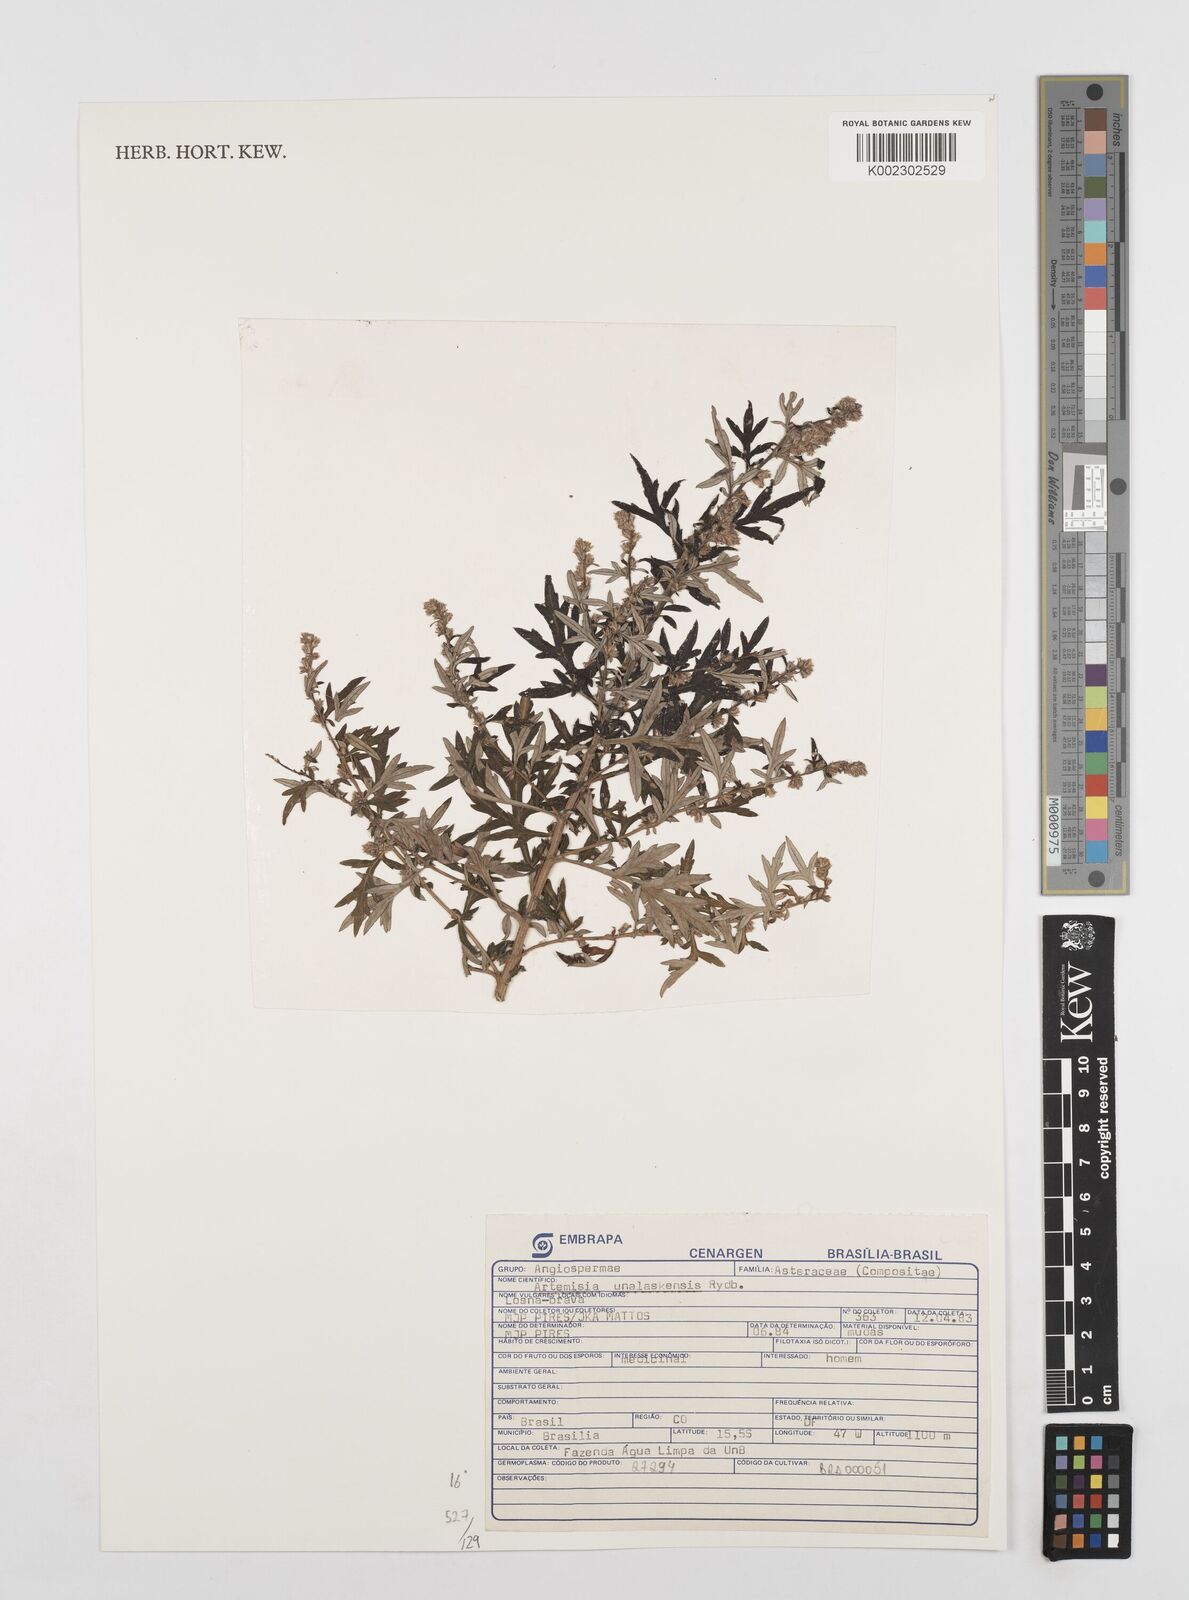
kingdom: Plantae
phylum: Tracheophyta
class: Magnoliopsida
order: Asterales
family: Asteraceae
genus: Artemisia
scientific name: Artemisia tilesii
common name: Aleutian mugwort
